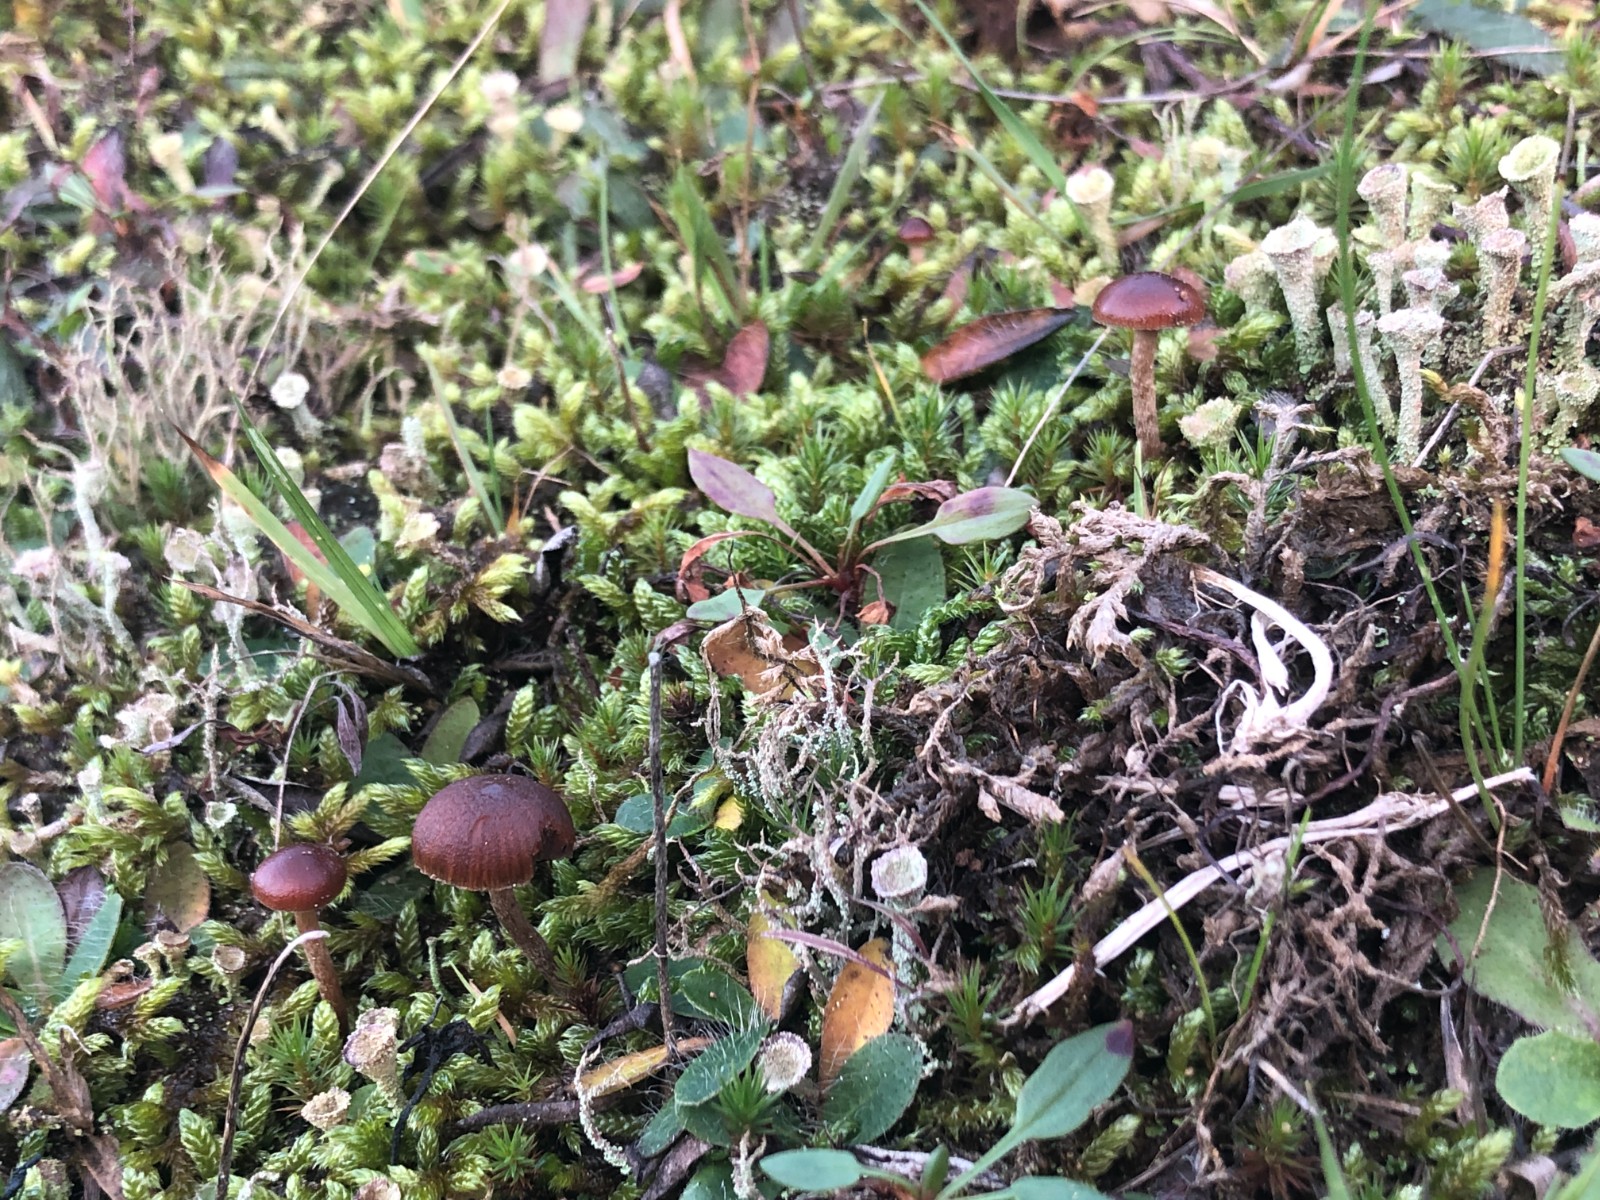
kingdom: Fungi
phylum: Basidiomycota
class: Agaricomycetes
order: Agaricales
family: Strophariaceae
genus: Deconica
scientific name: Deconica montana
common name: rødbrun stråhat
